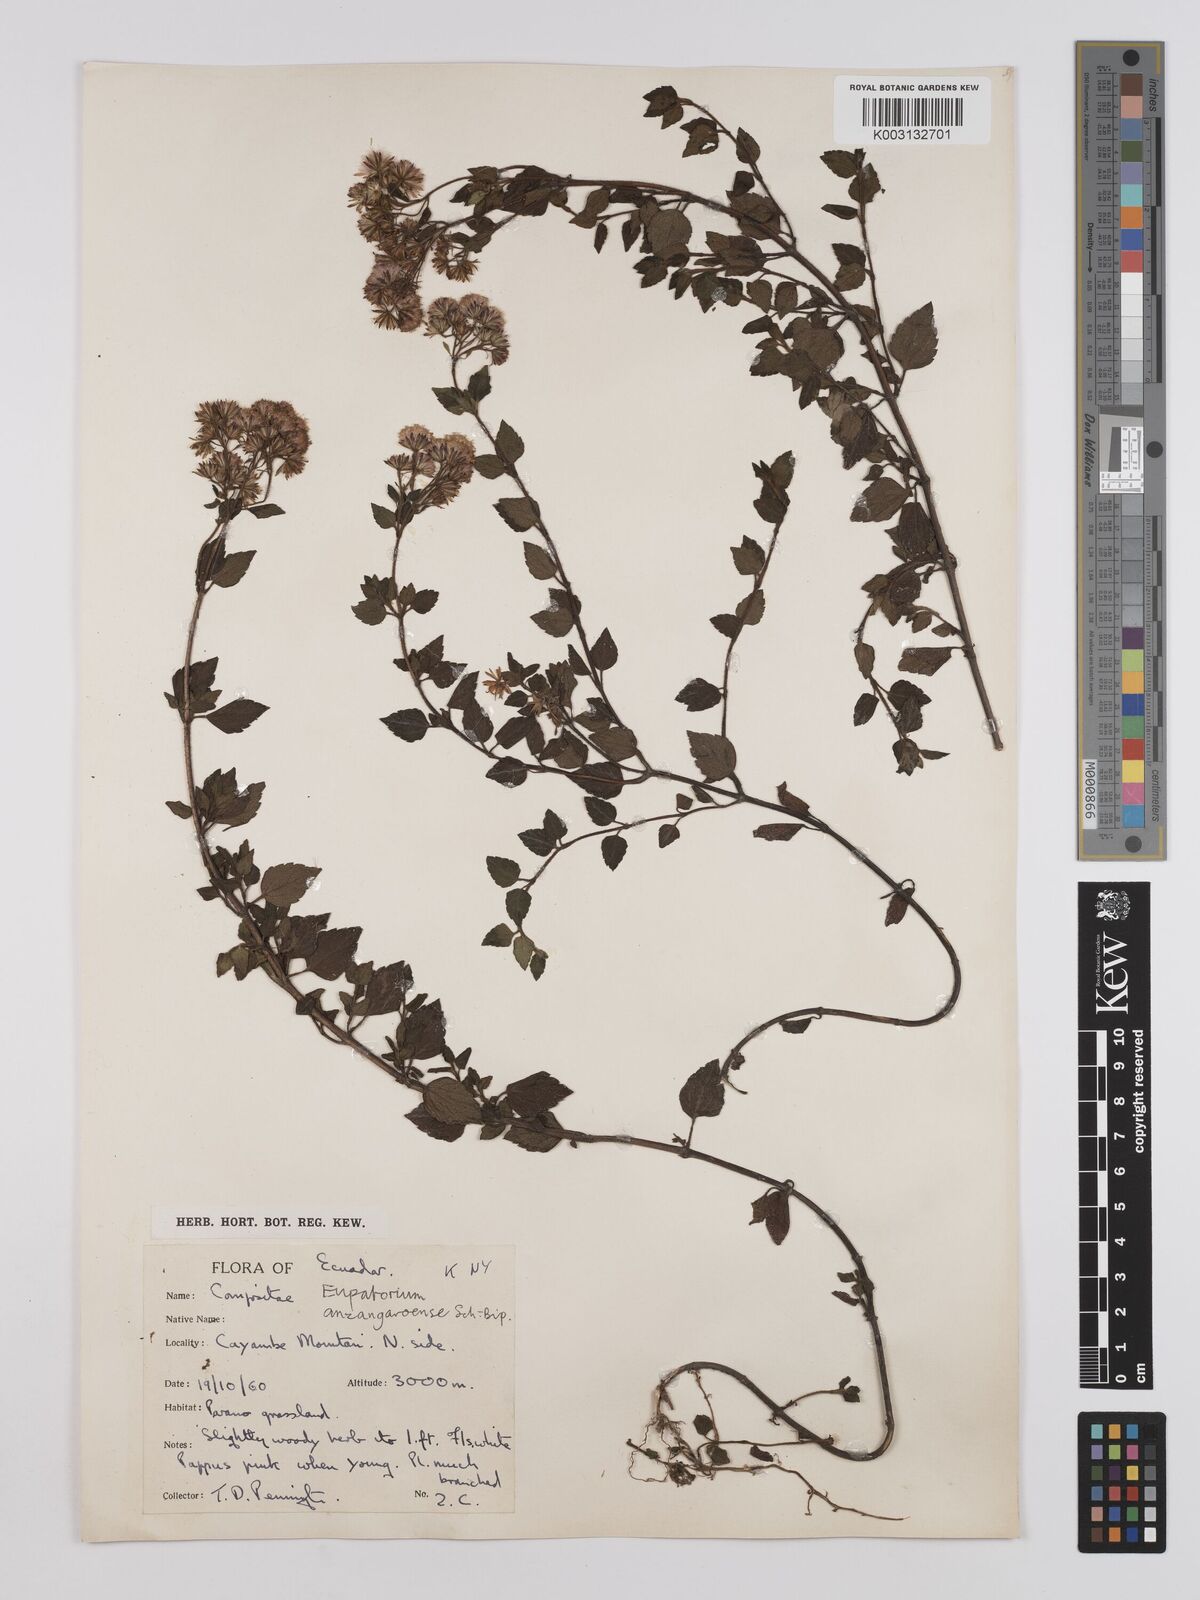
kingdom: Plantae
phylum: Tracheophyta
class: Magnoliopsida
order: Asterales
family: Asteraceae
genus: Ageratina
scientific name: Ageratina glechonophylla
